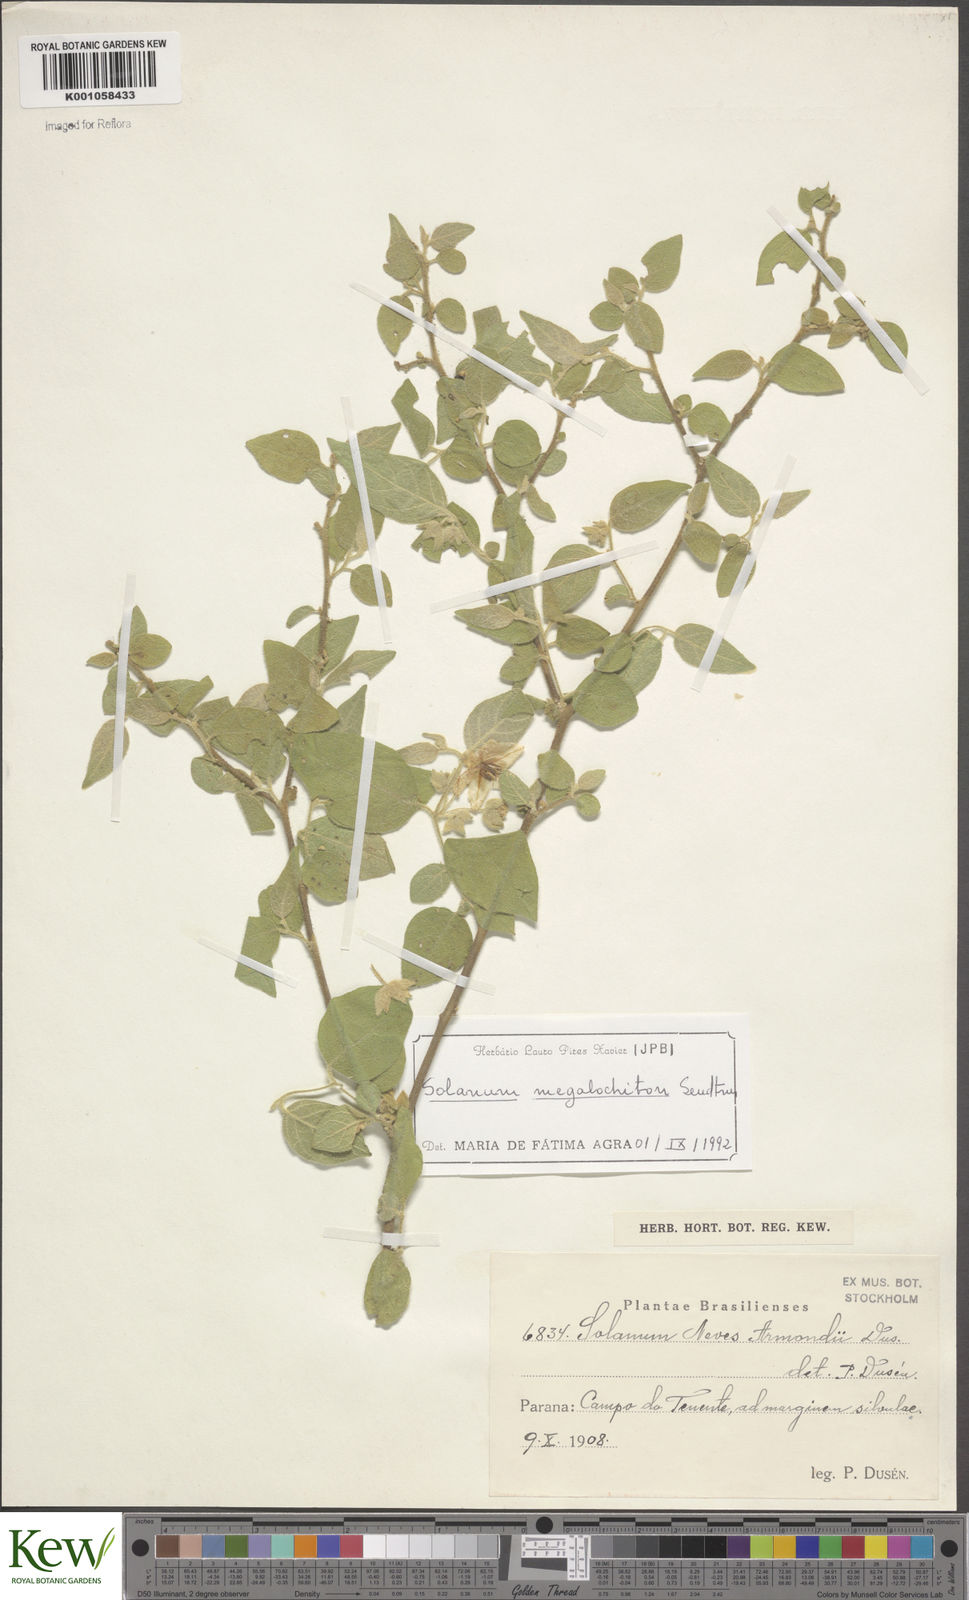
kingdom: Plantae
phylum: Tracheophyta
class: Magnoliopsida
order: Solanales
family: Solanaceae
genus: Solanum
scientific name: Solanum didymum
